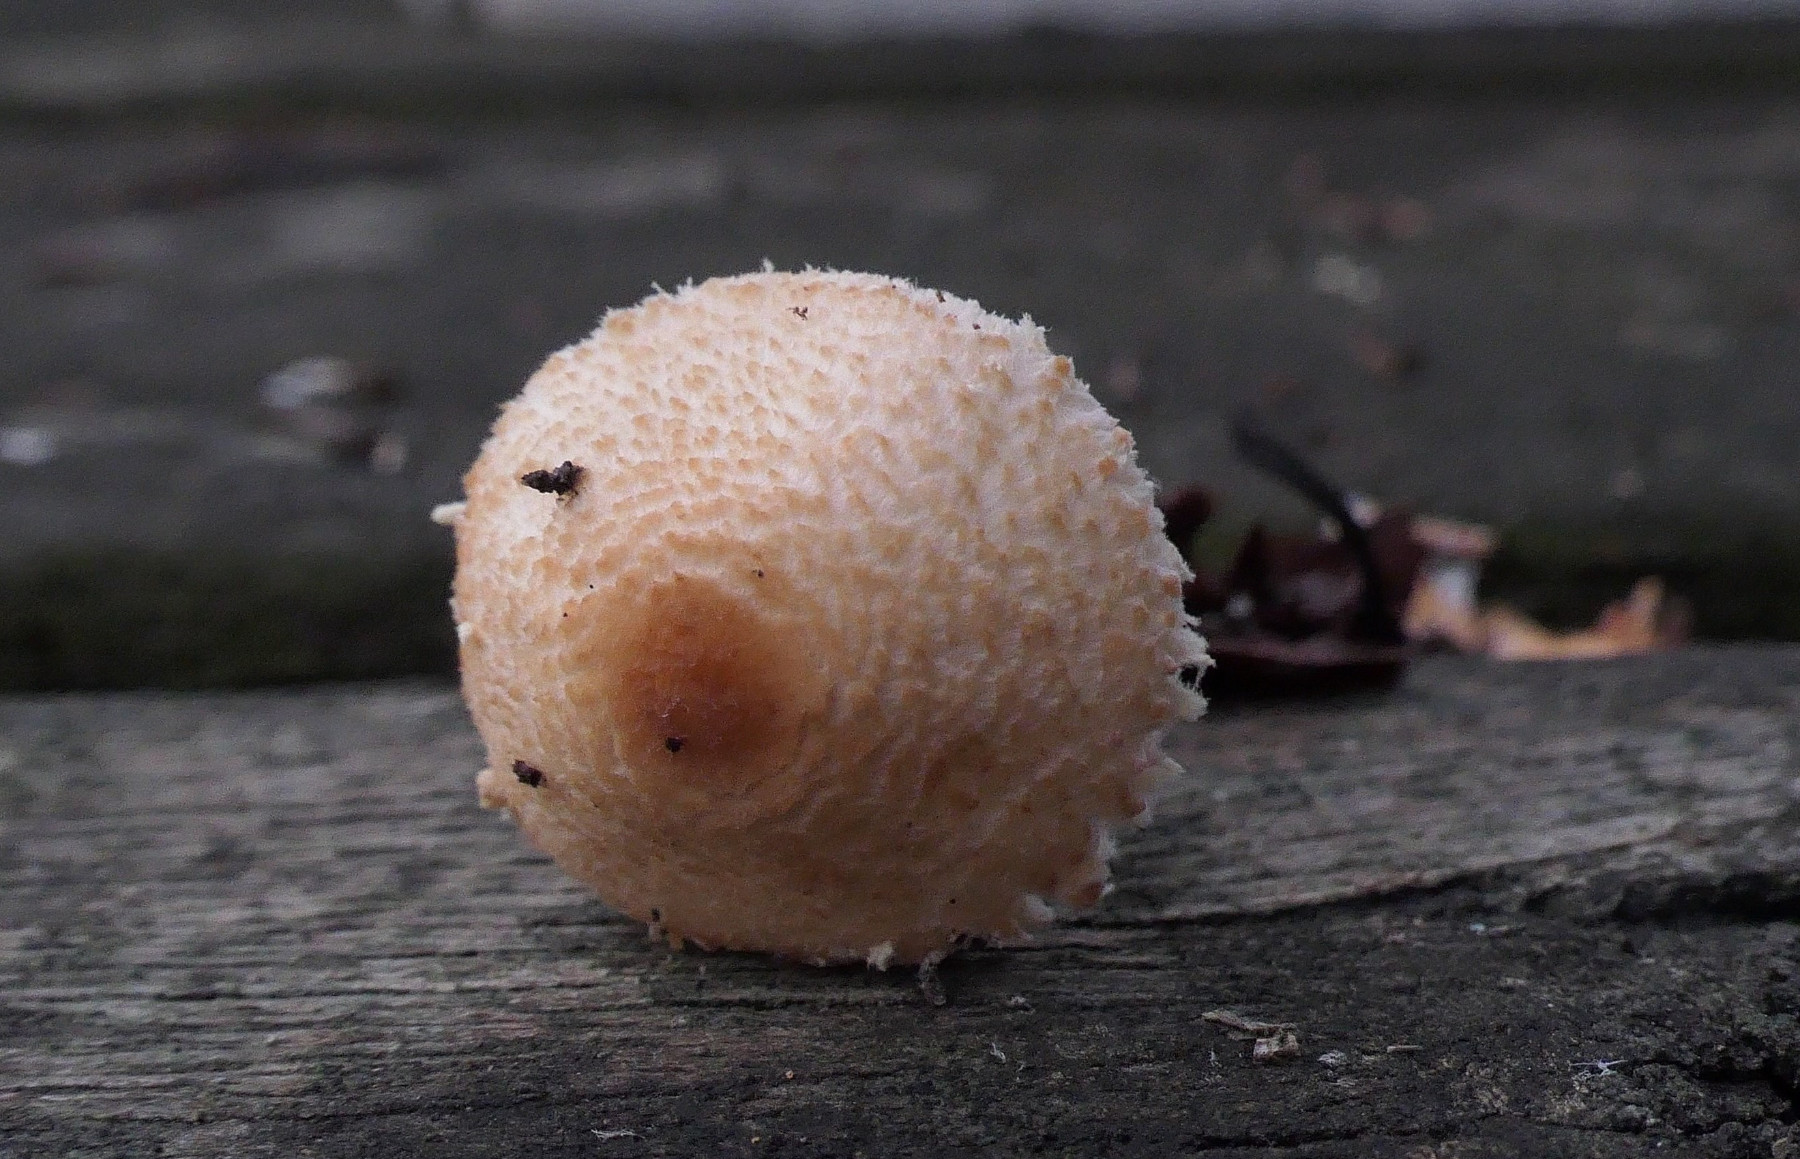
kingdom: Fungi
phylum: Basidiomycota
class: Agaricomycetes
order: Agaricales
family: Agaricaceae
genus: Lepiota
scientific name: Lepiota magnispora
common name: gulfnugget parasolhat
